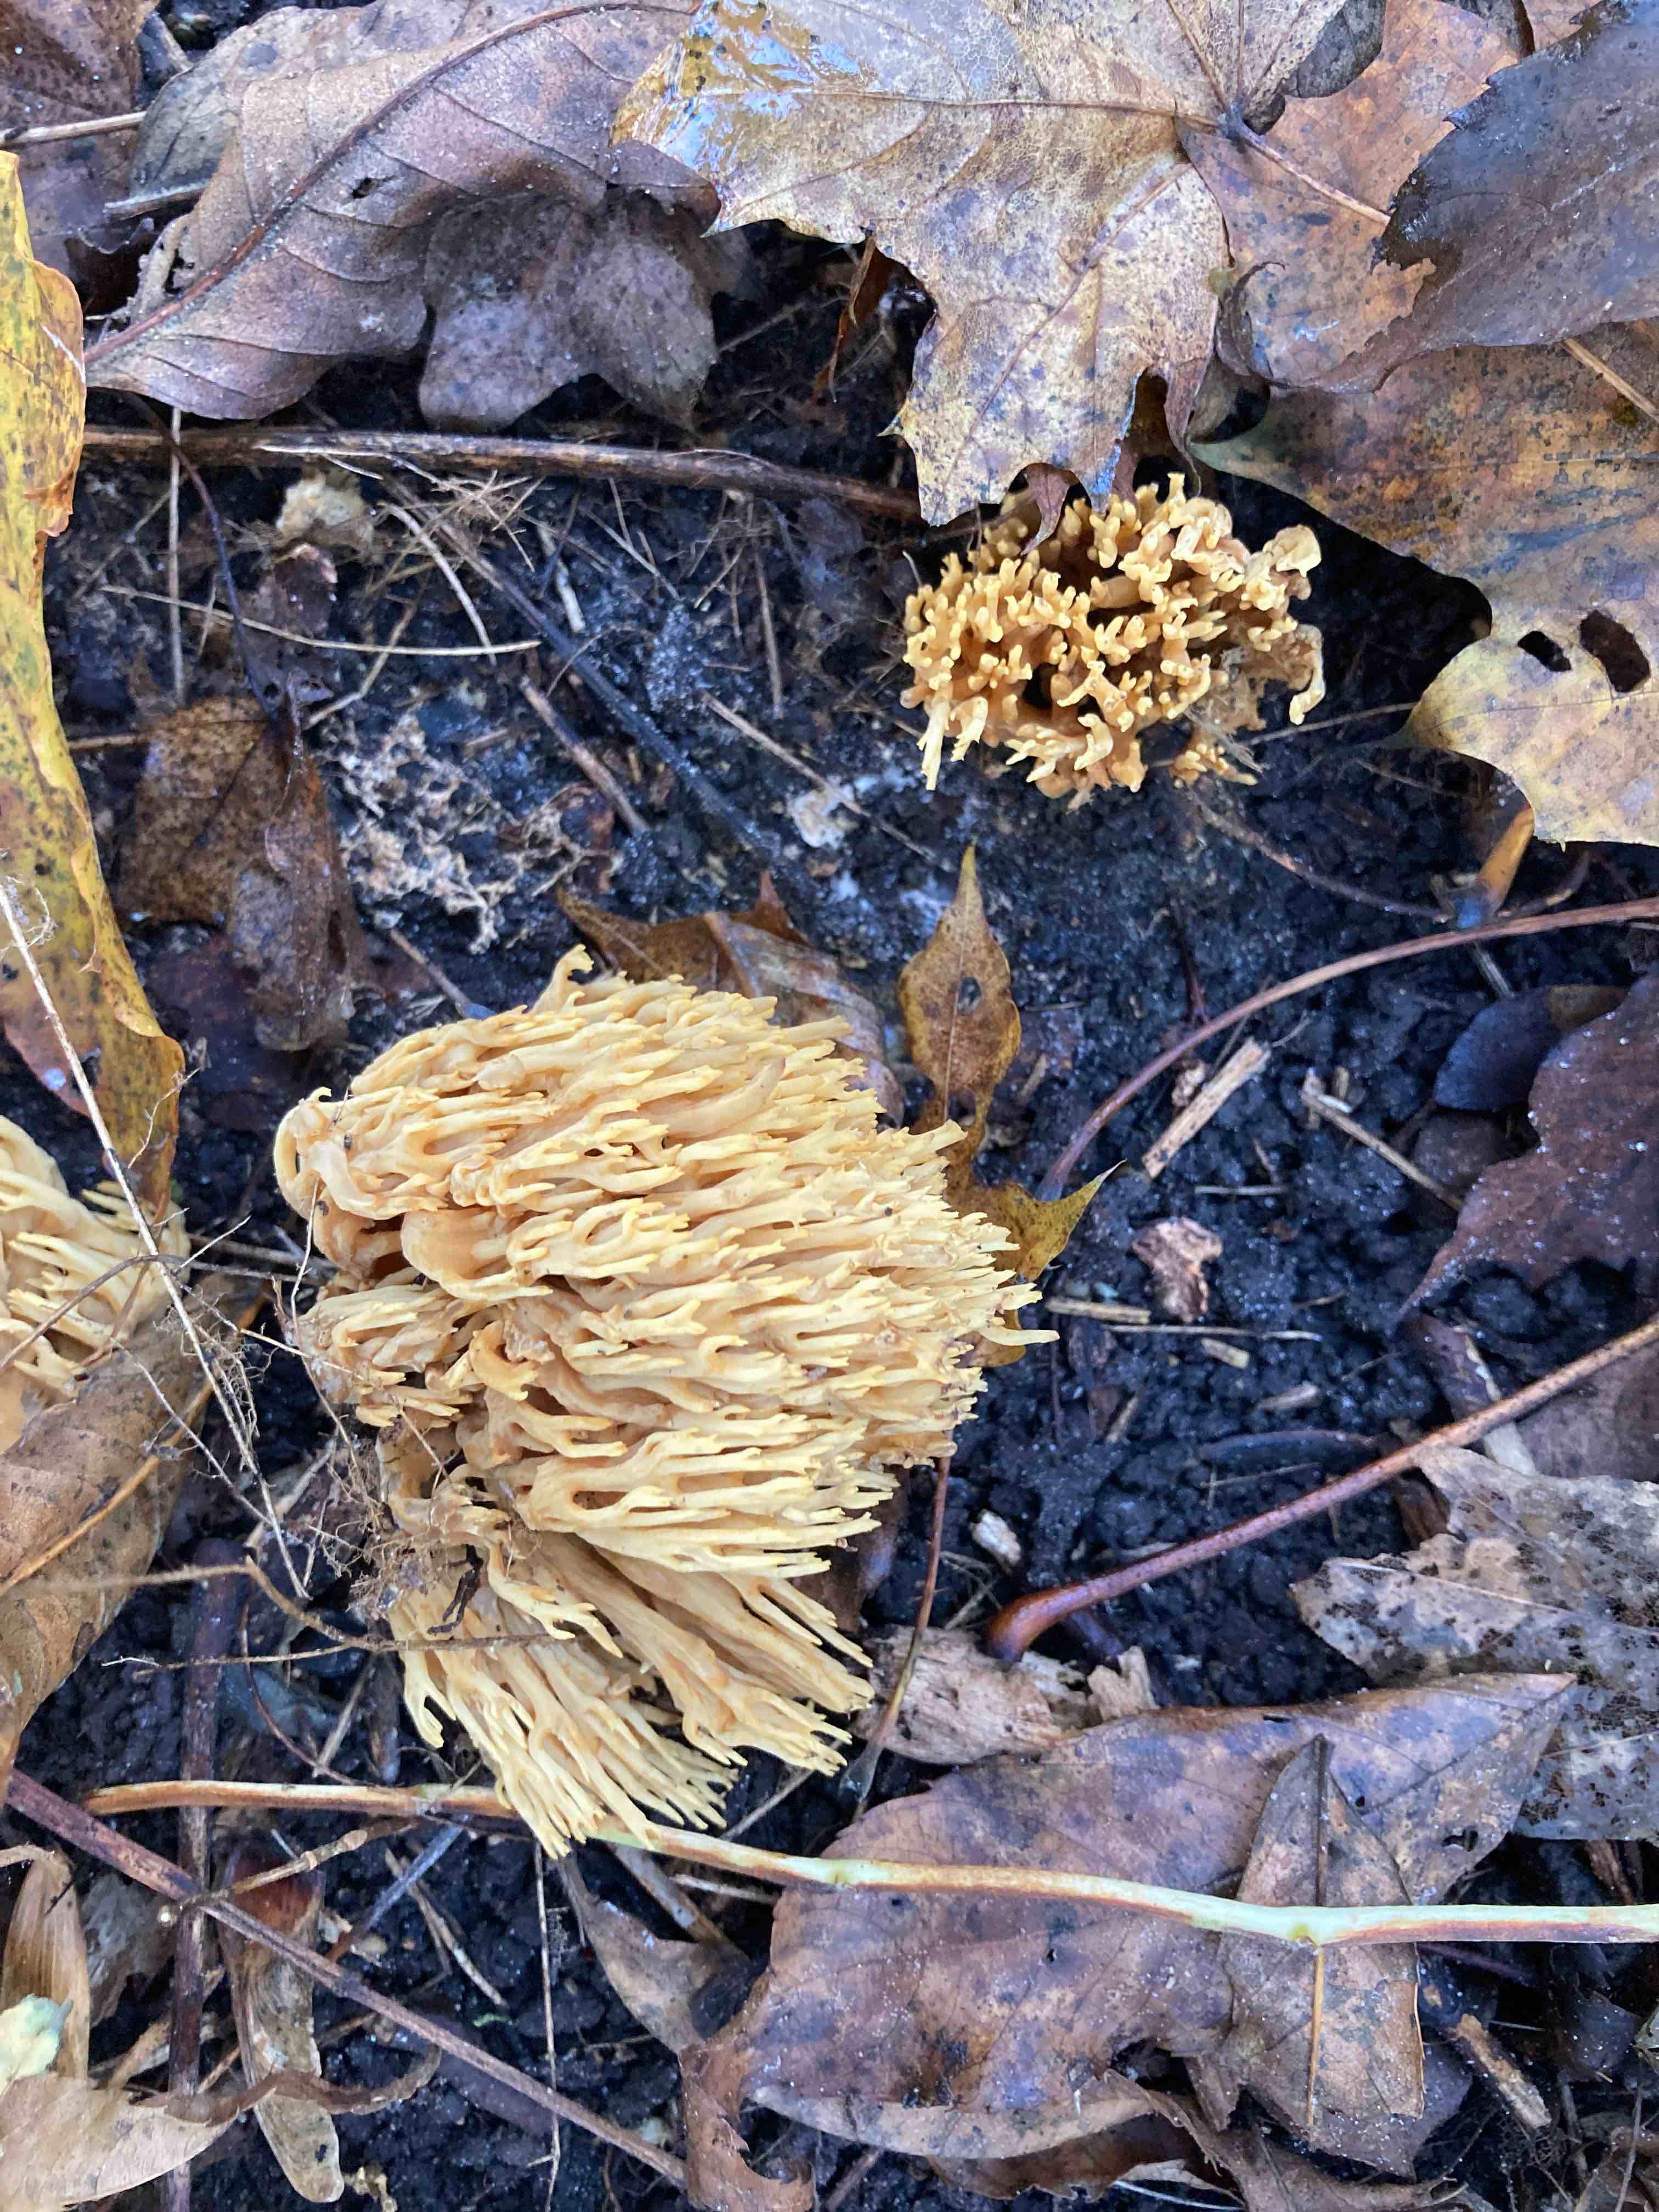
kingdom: Fungi
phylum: Basidiomycota
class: Agaricomycetes
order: Gomphales
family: Gomphaceae
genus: Phaeoclavulina
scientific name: Phaeoclavulina decurrens
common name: krat-koralsvamp
